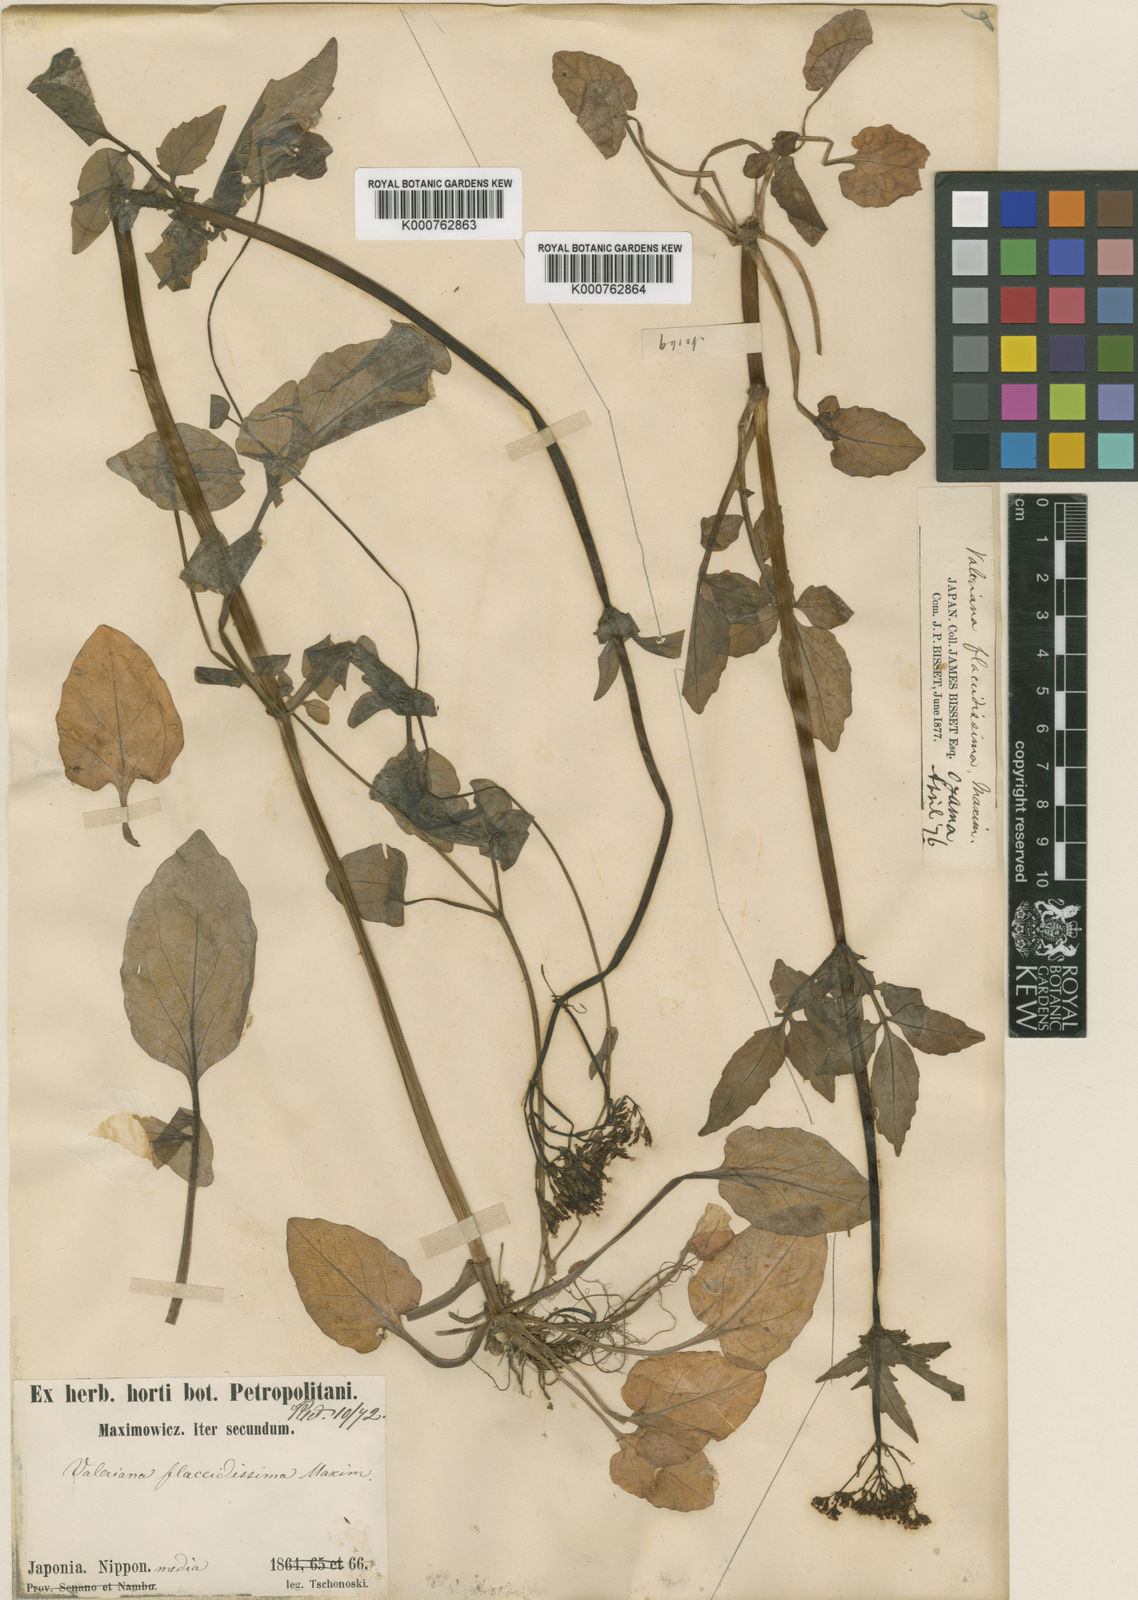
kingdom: Plantae
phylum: Tracheophyta
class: Magnoliopsida
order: Dipsacales
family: Caprifoliaceae
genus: Valeriana
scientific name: Valeriana flaccidissima
